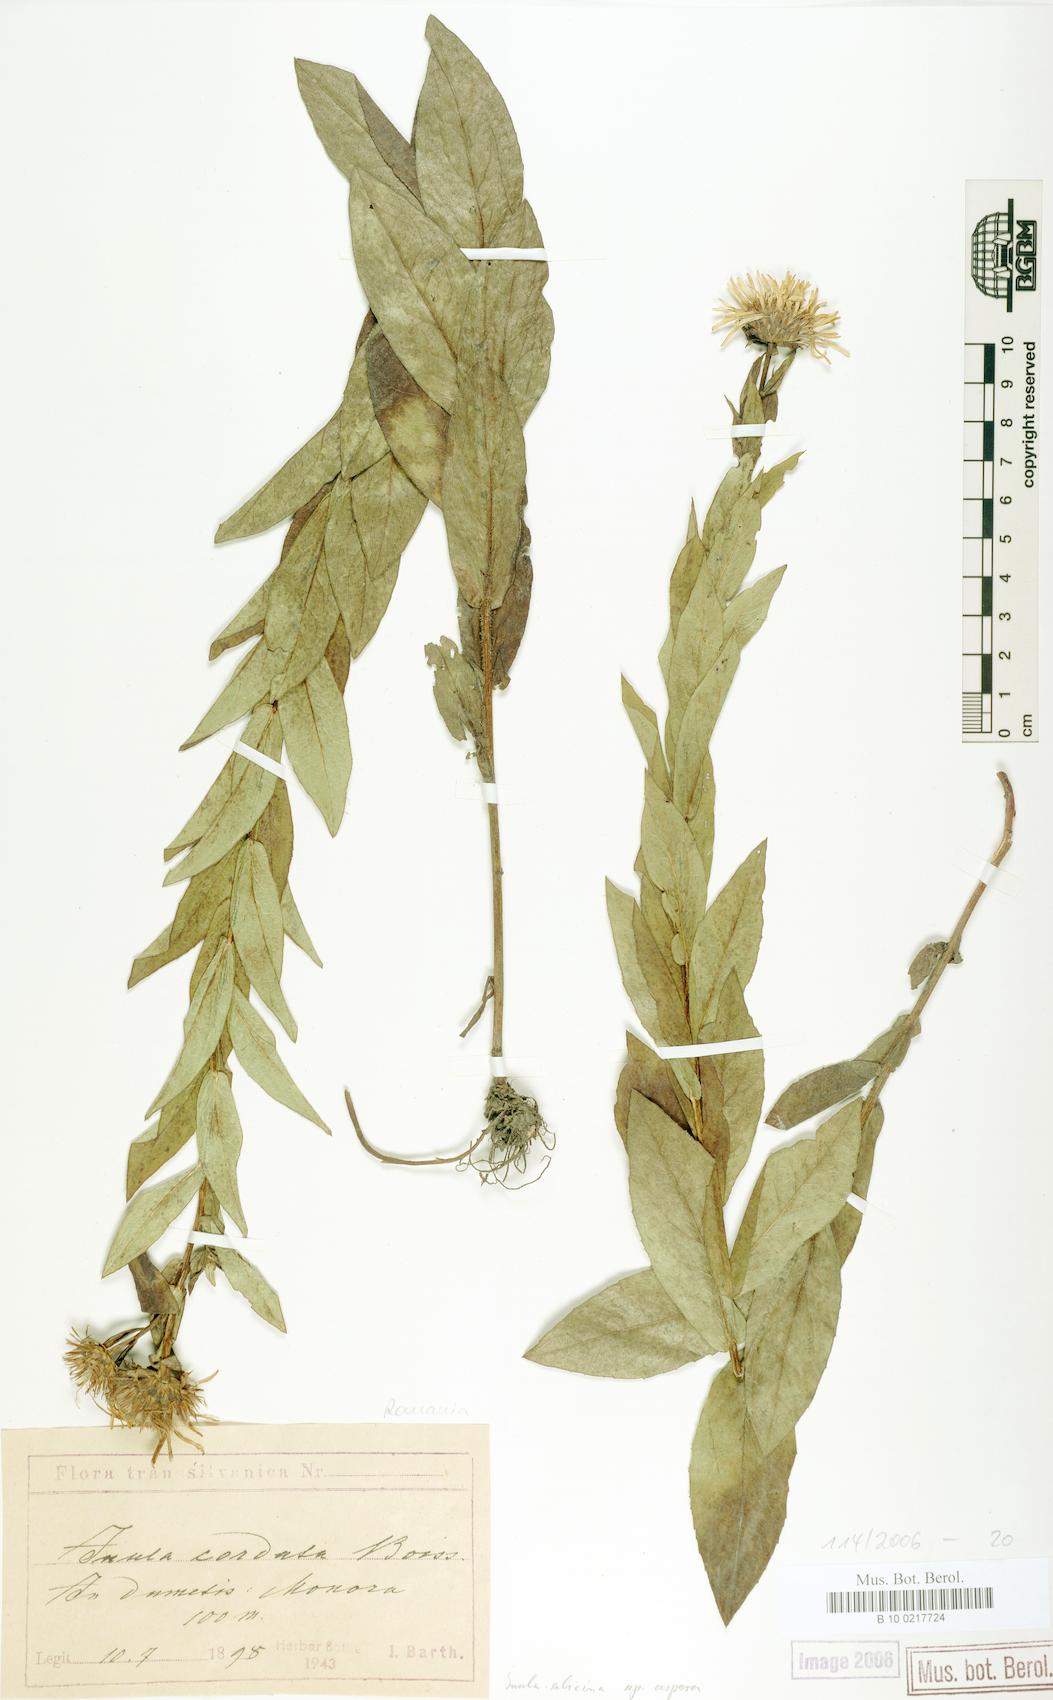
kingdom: Plantae
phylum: Tracheophyta
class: Magnoliopsida
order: Asterales
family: Asteraceae
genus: Pentanema
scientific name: Pentanema salicinum
